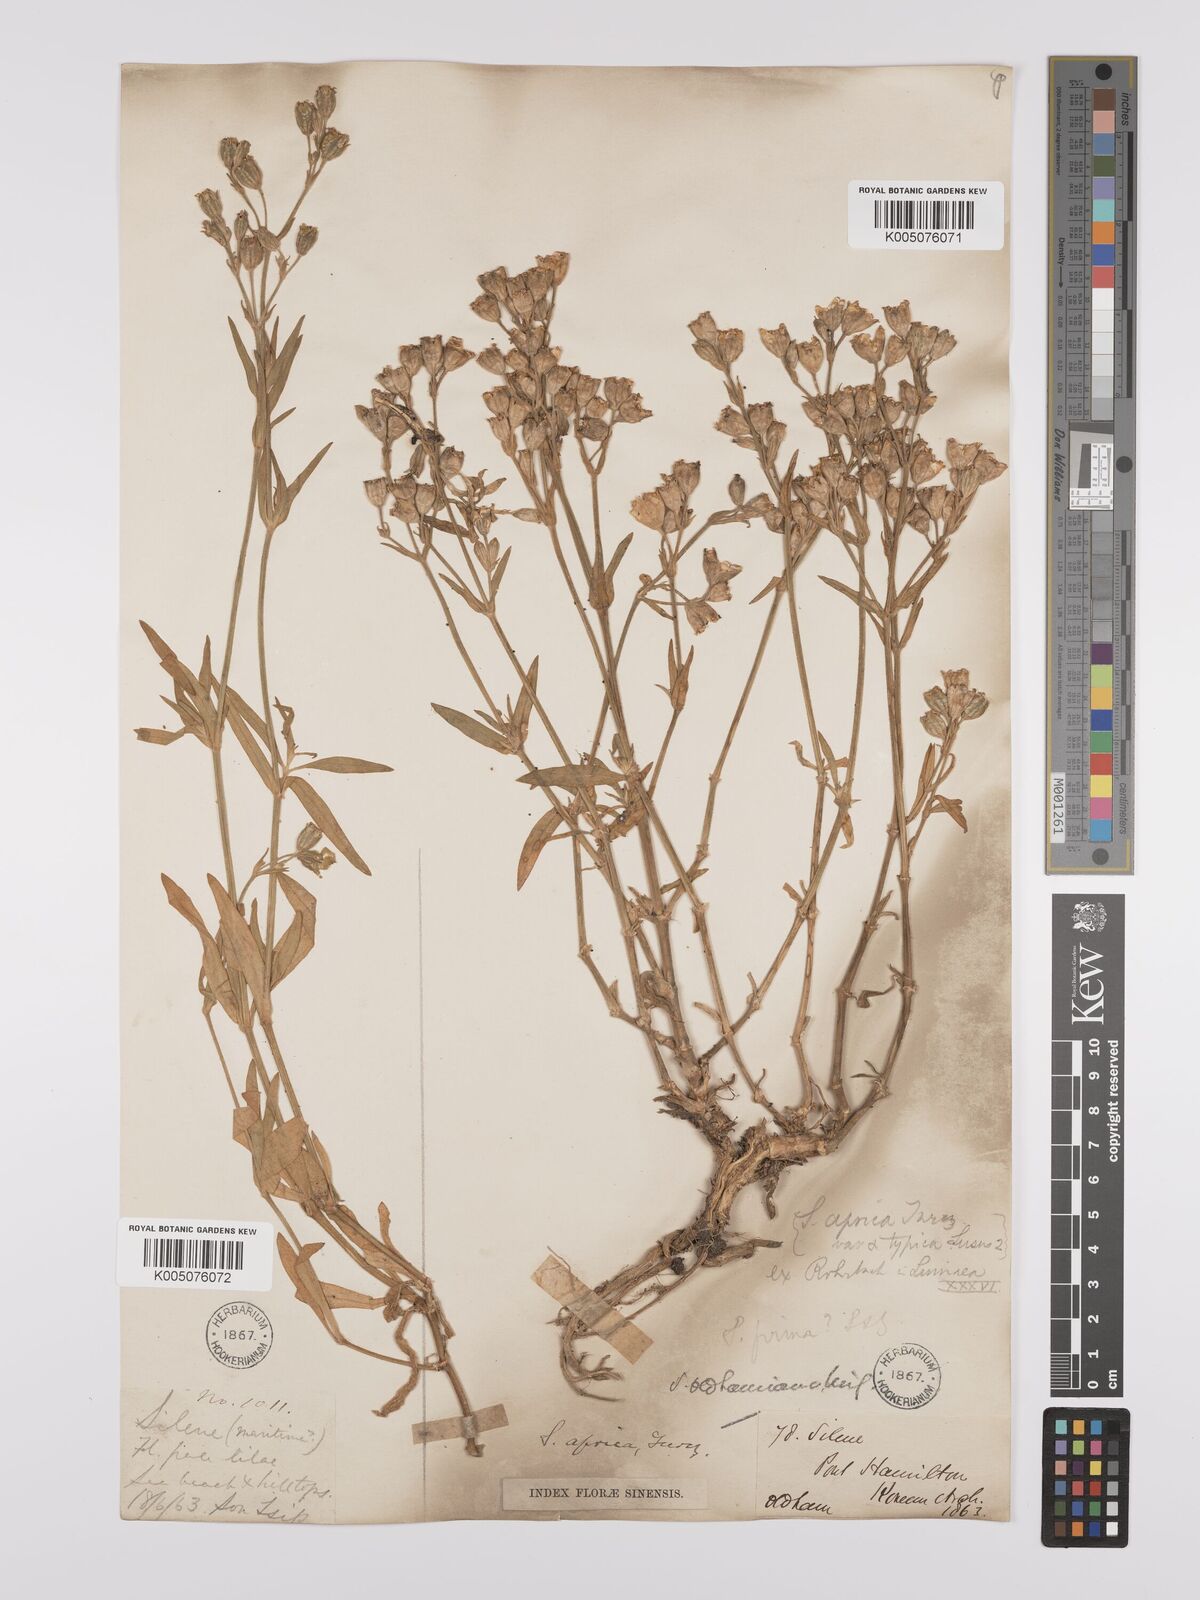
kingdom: Plantae
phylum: Tracheophyta
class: Magnoliopsida
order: Caryophyllales
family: Caryophyllaceae
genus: Silene
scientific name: Silene aprica
